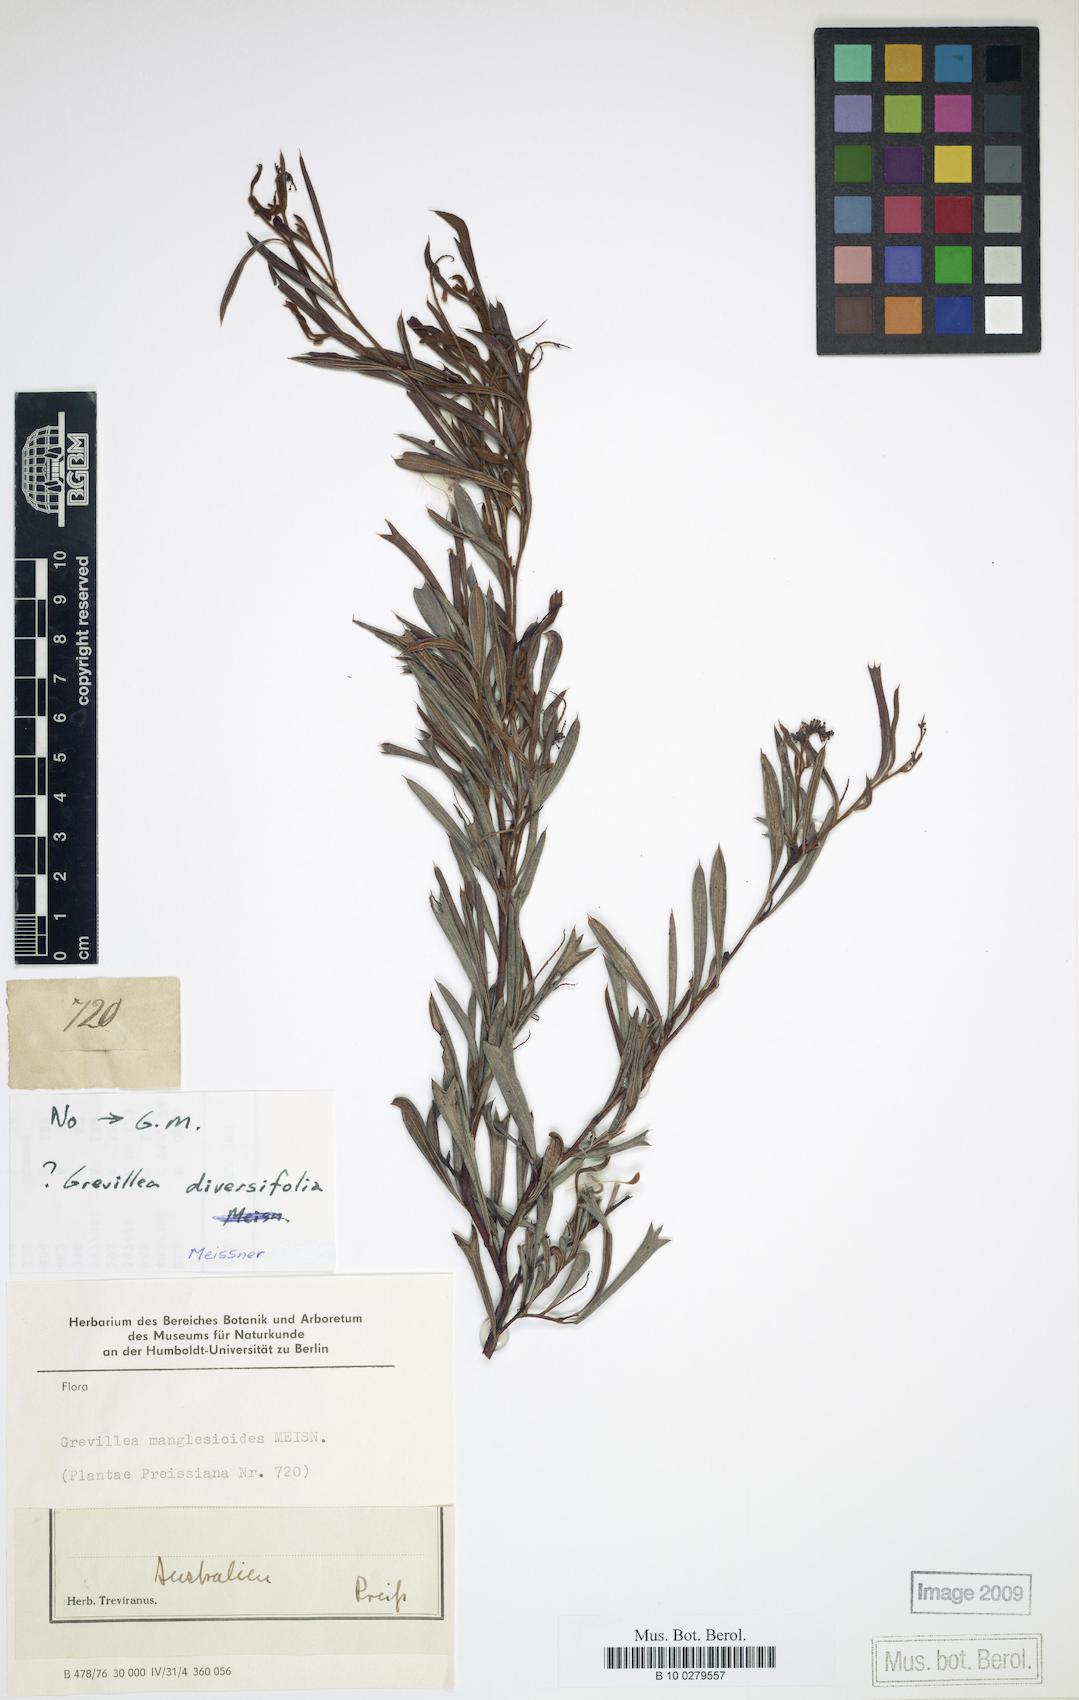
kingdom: Plantae
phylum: Tracheophyta
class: Magnoliopsida
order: Proteales
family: Proteaceae
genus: Grevillea
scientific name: Grevillea manglesioides
